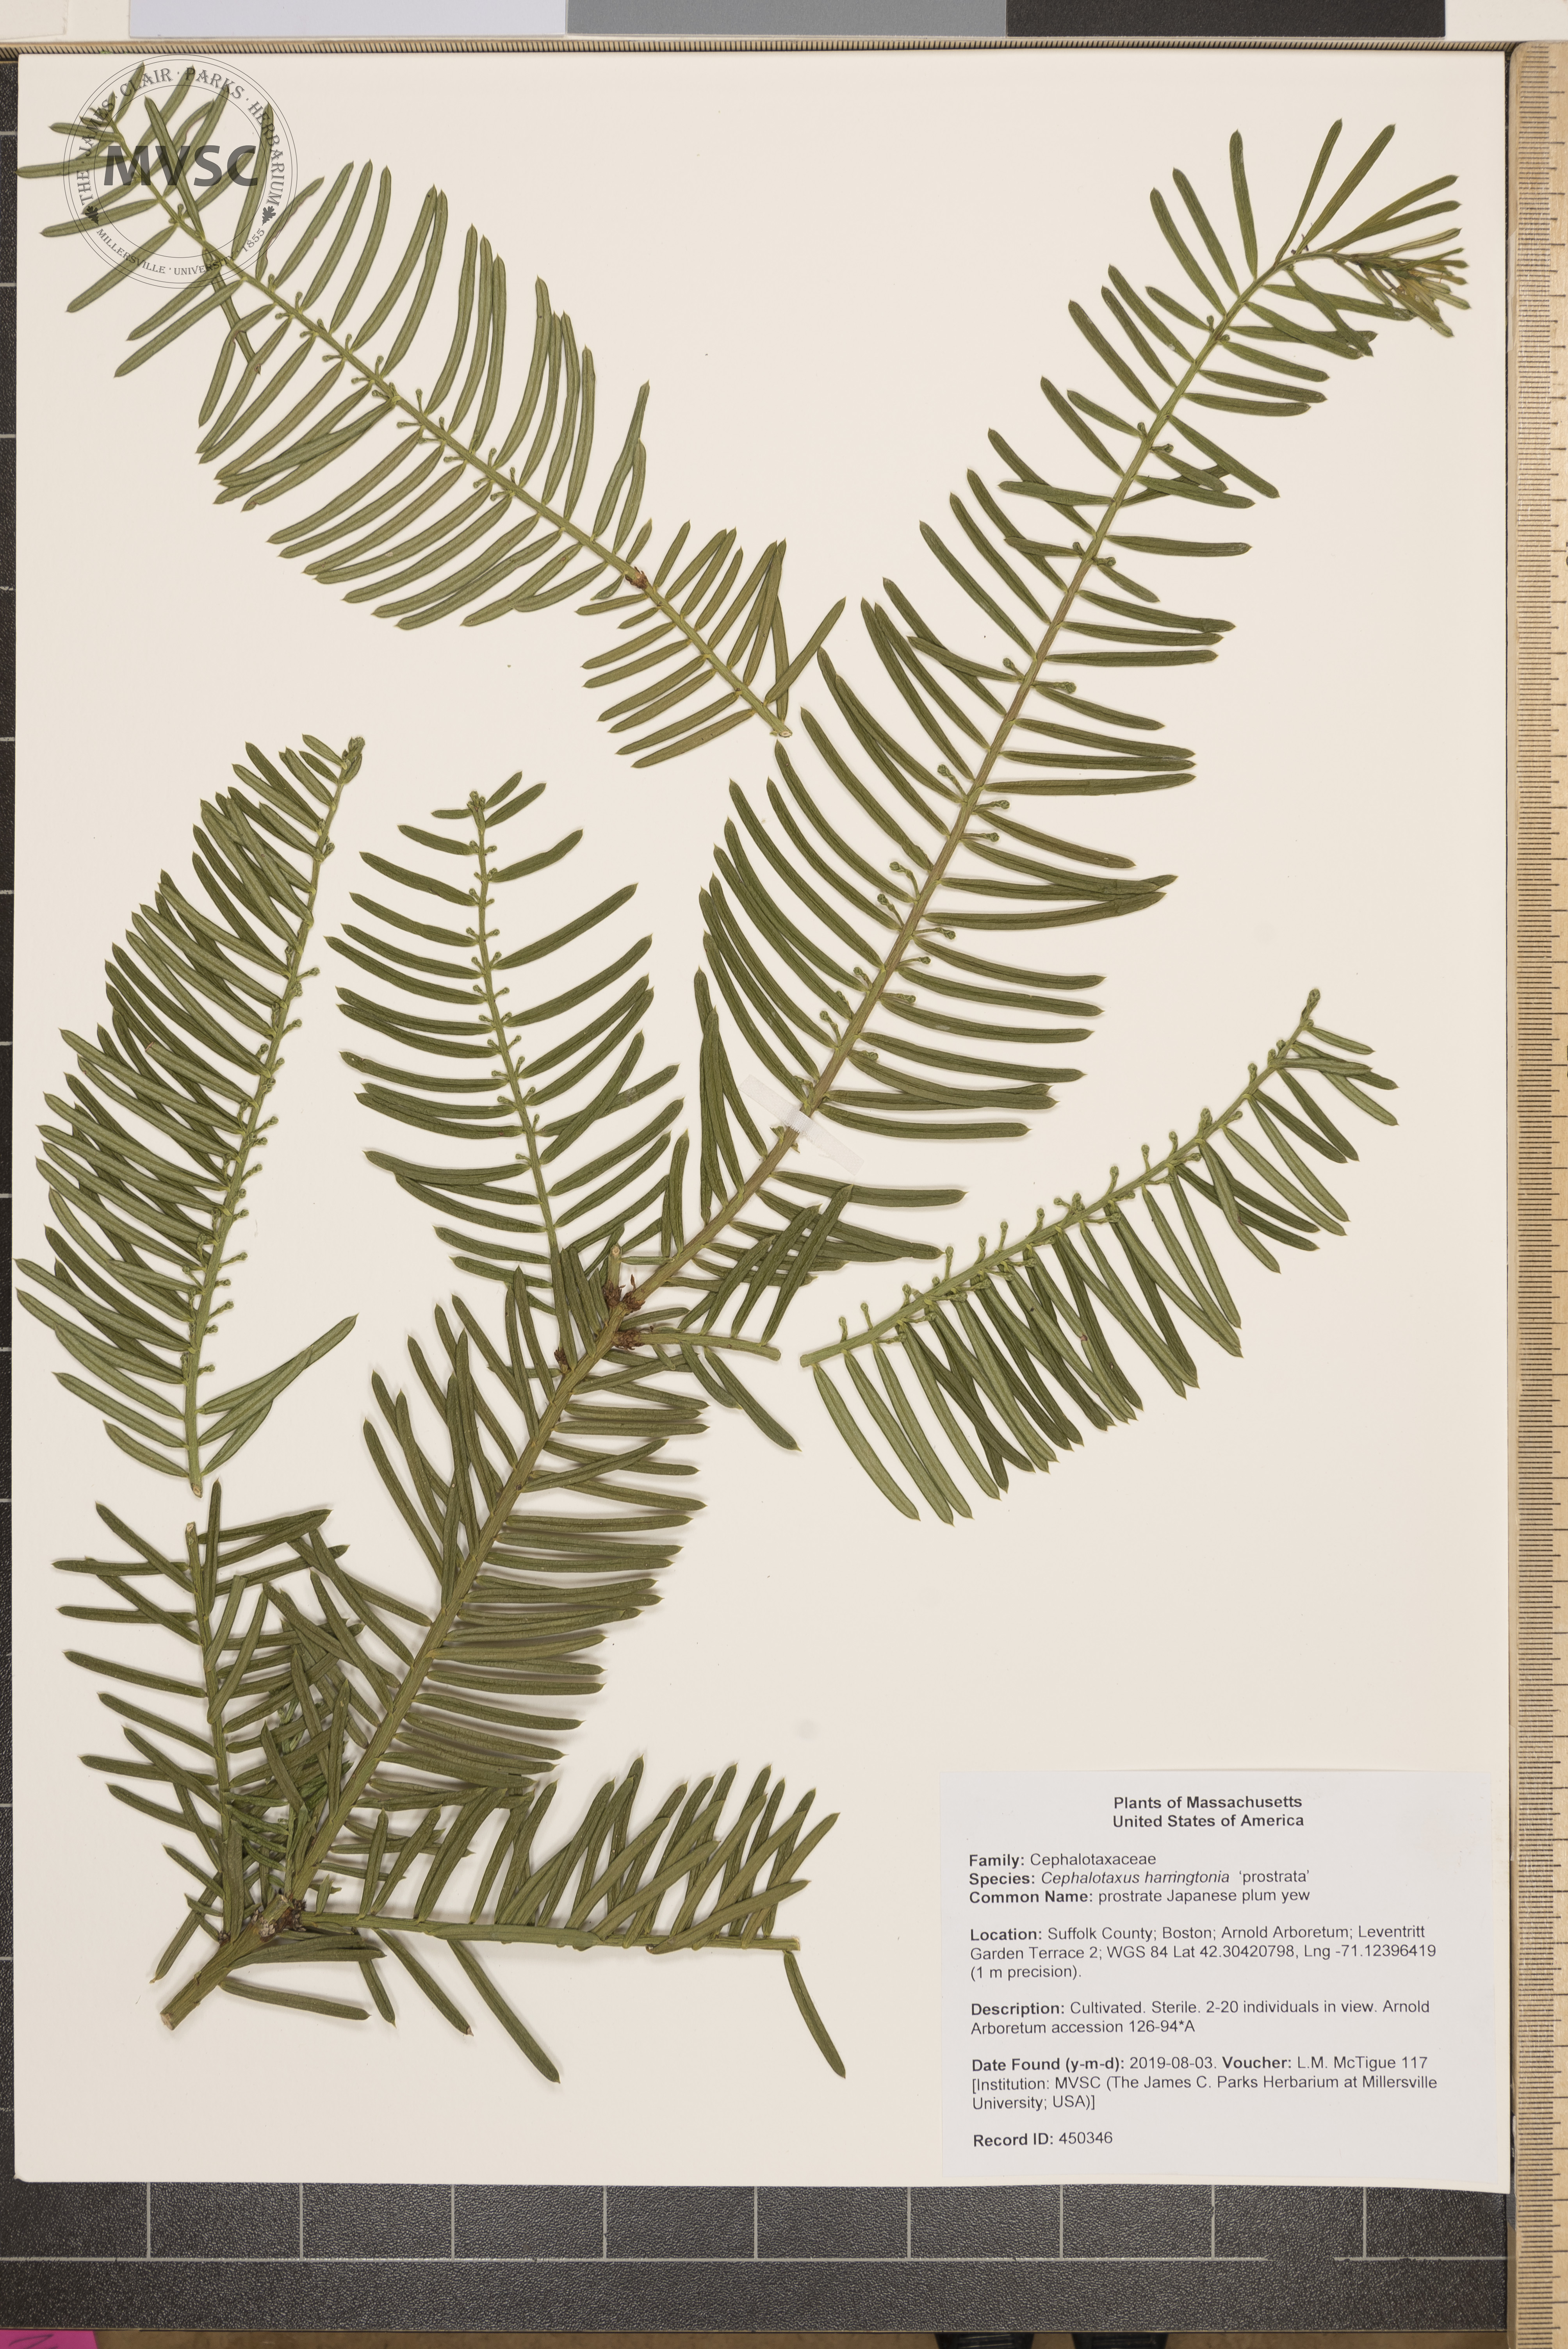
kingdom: Plantae
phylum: Tracheophyta
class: Pinopsida
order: Pinales
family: Cephalotaxaceae
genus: Cephalotaxus
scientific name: Cephalotaxus harringtonia
